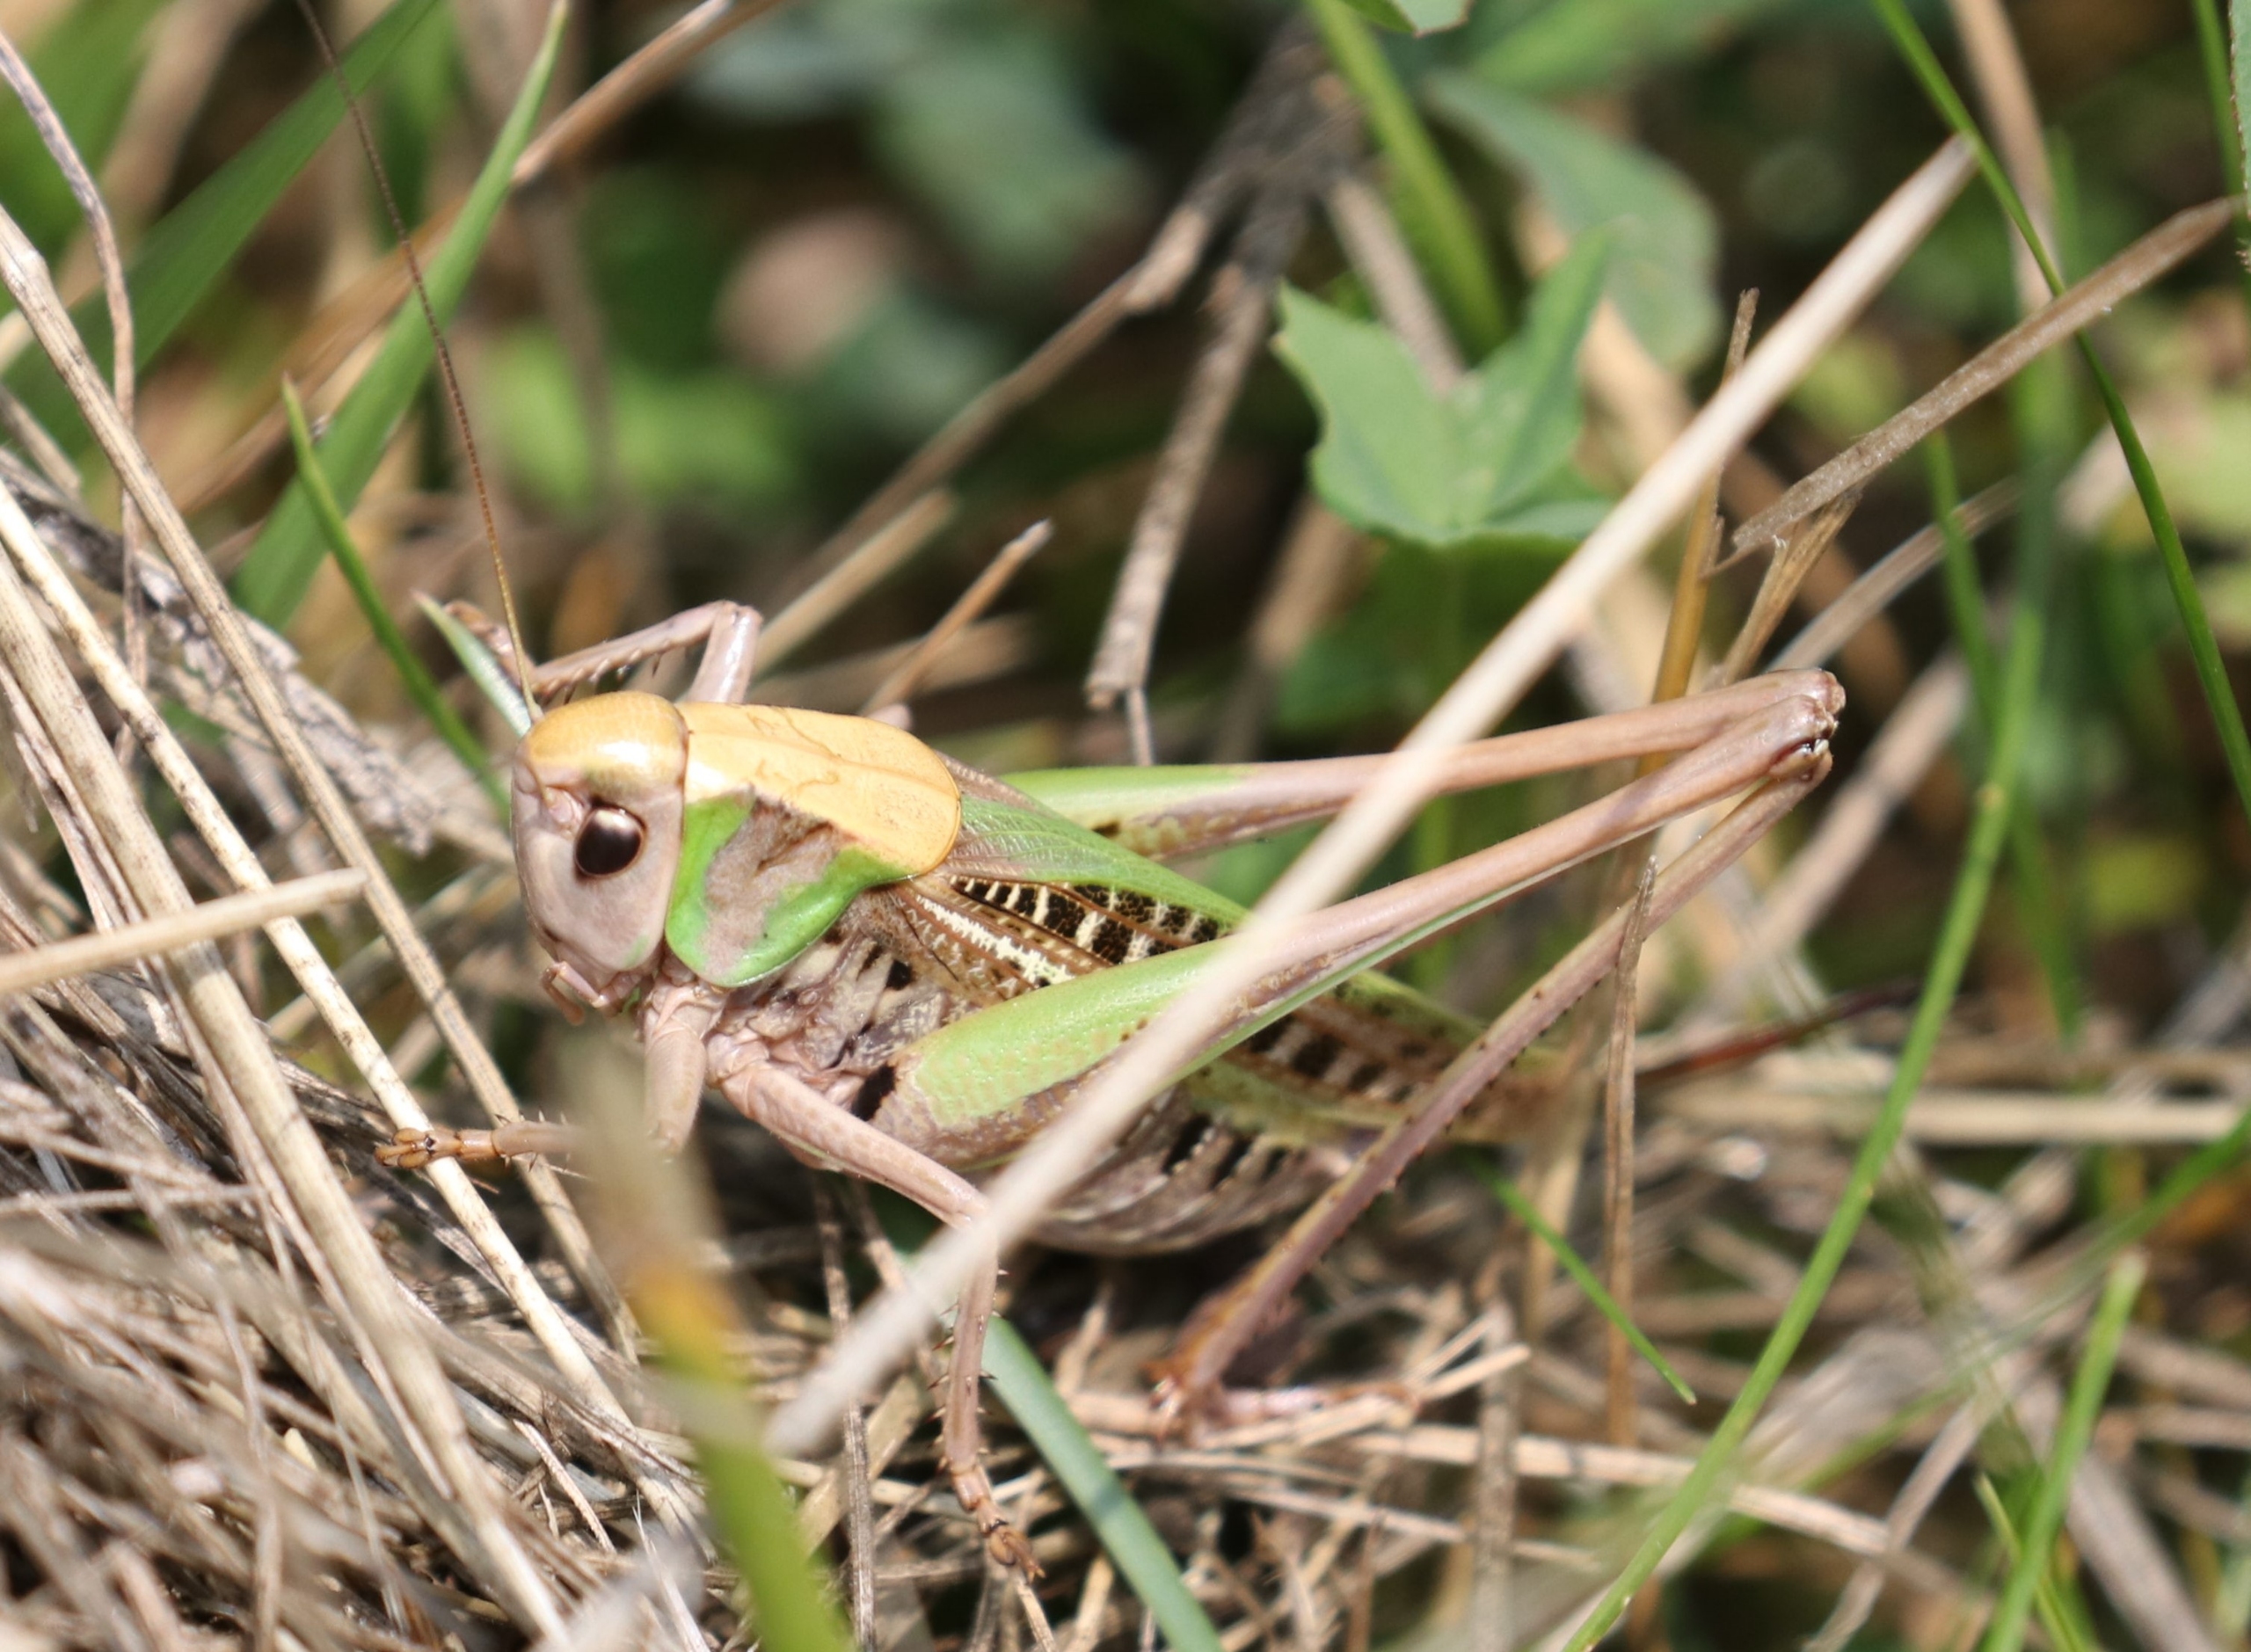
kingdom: Animalia
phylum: Arthropoda
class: Insecta
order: Orthoptera
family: Tettigoniidae
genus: Decticus
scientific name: Decticus verrucivorus
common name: Vortebider
